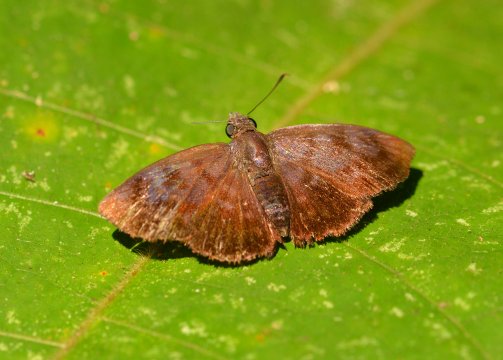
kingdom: Animalia
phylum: Arthropoda
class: Insecta
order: Lepidoptera
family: Hesperiidae
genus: Pellicia
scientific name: Pellicia costimacula
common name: Glazed Pellicia
